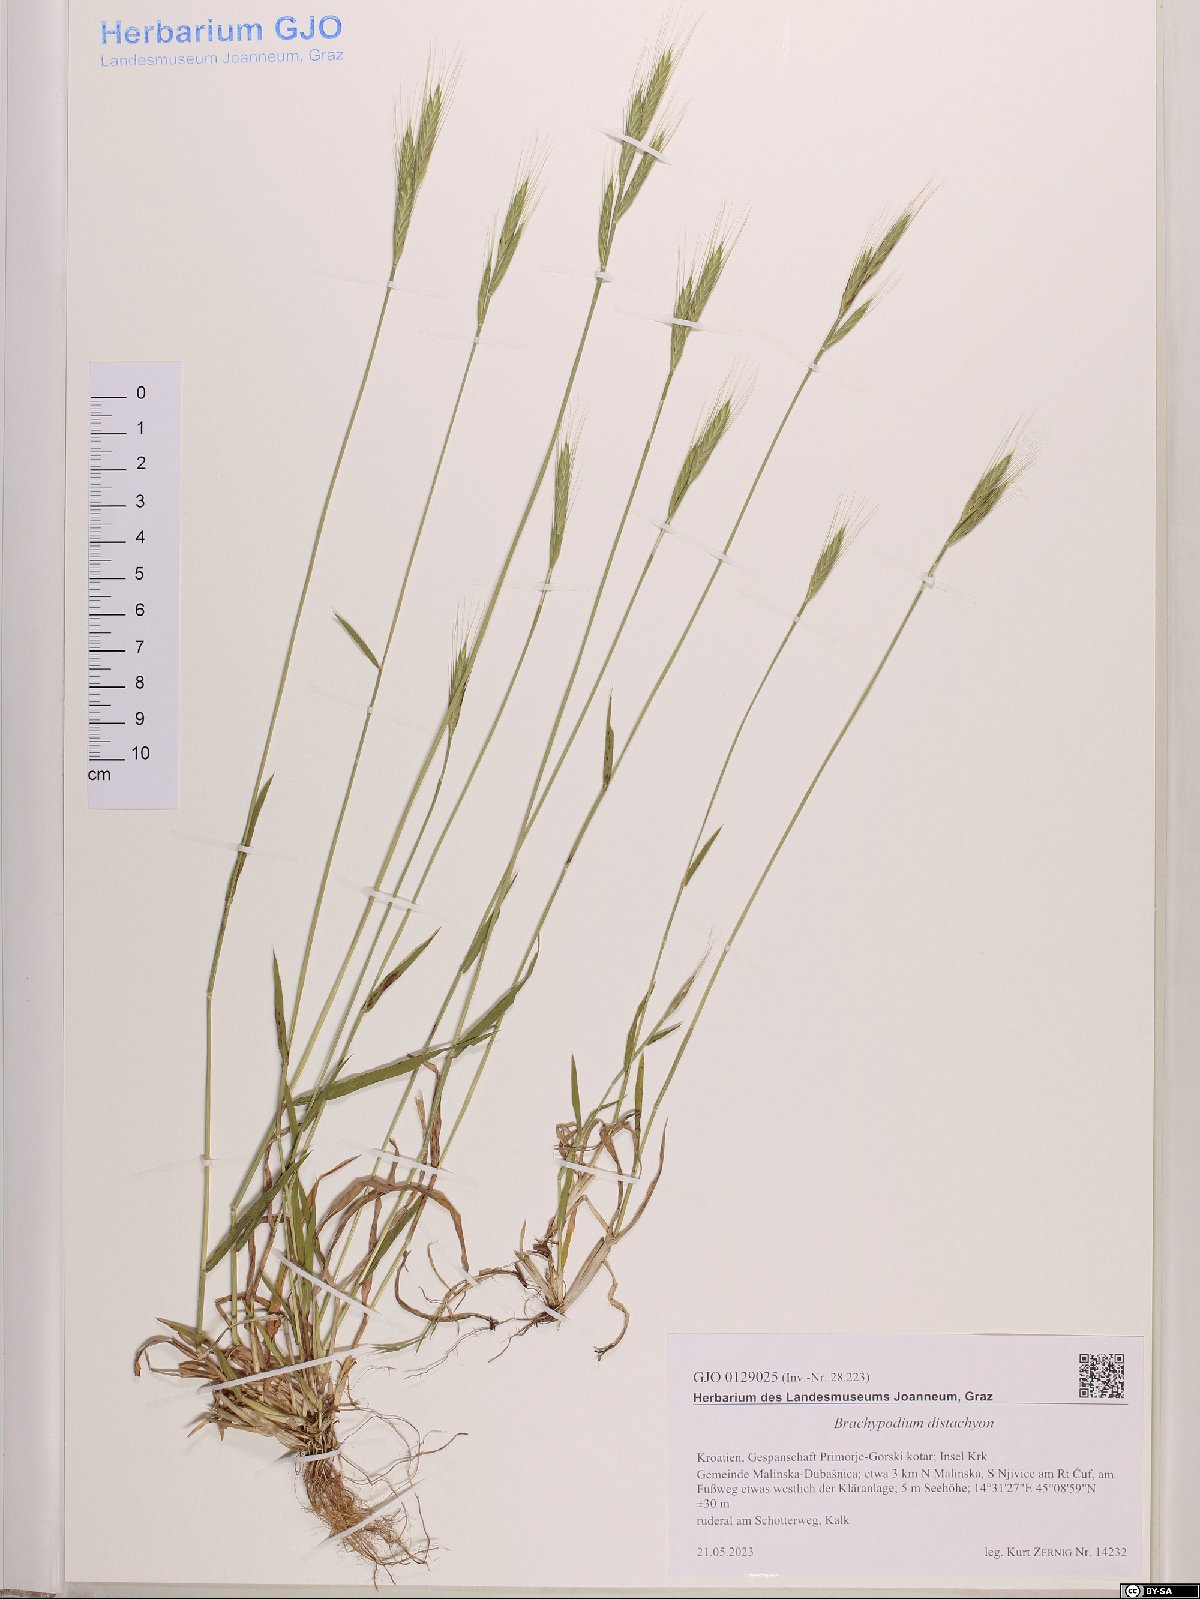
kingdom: Plantae
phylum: Tracheophyta
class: Liliopsida
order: Poales
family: Poaceae
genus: Brachypodium
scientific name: Brachypodium distachyon
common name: Stiff brome
